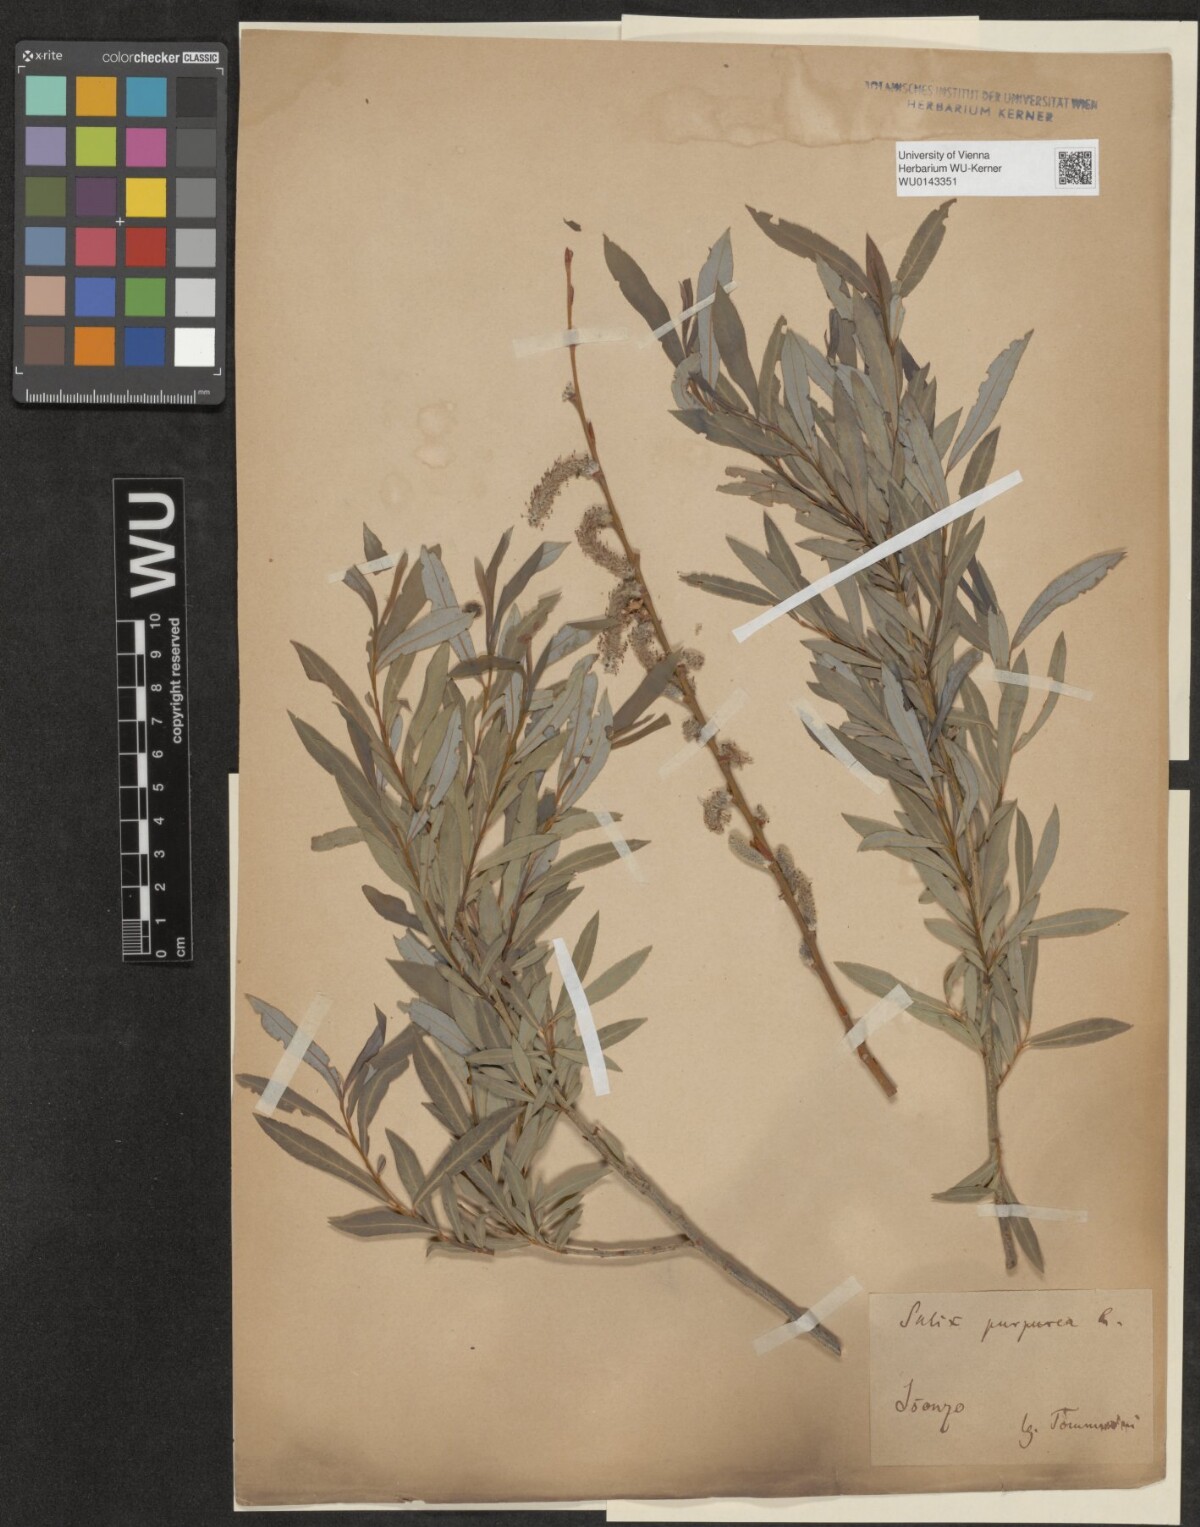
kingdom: Plantae
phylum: Tracheophyta
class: Magnoliopsida
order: Malpighiales
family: Salicaceae
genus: Salix
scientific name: Salix purpurea
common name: Purple willow
